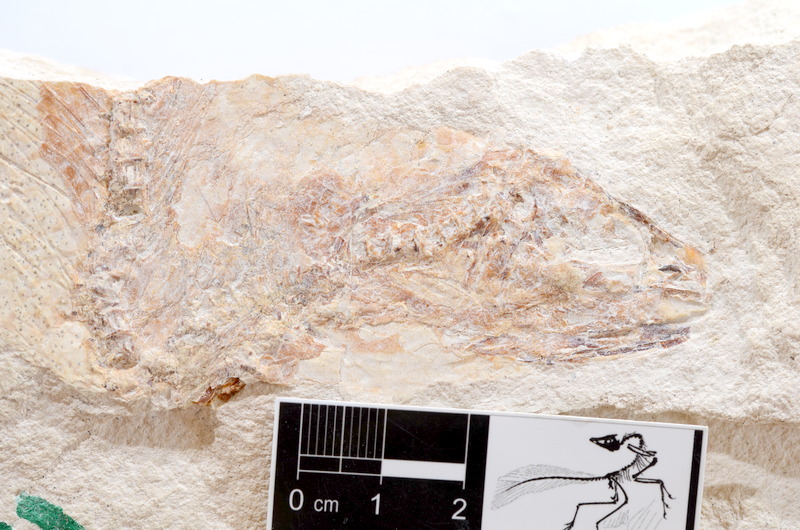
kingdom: Animalia
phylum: Chordata
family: Ascalaboidae
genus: Tharsis
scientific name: Tharsis dubius
